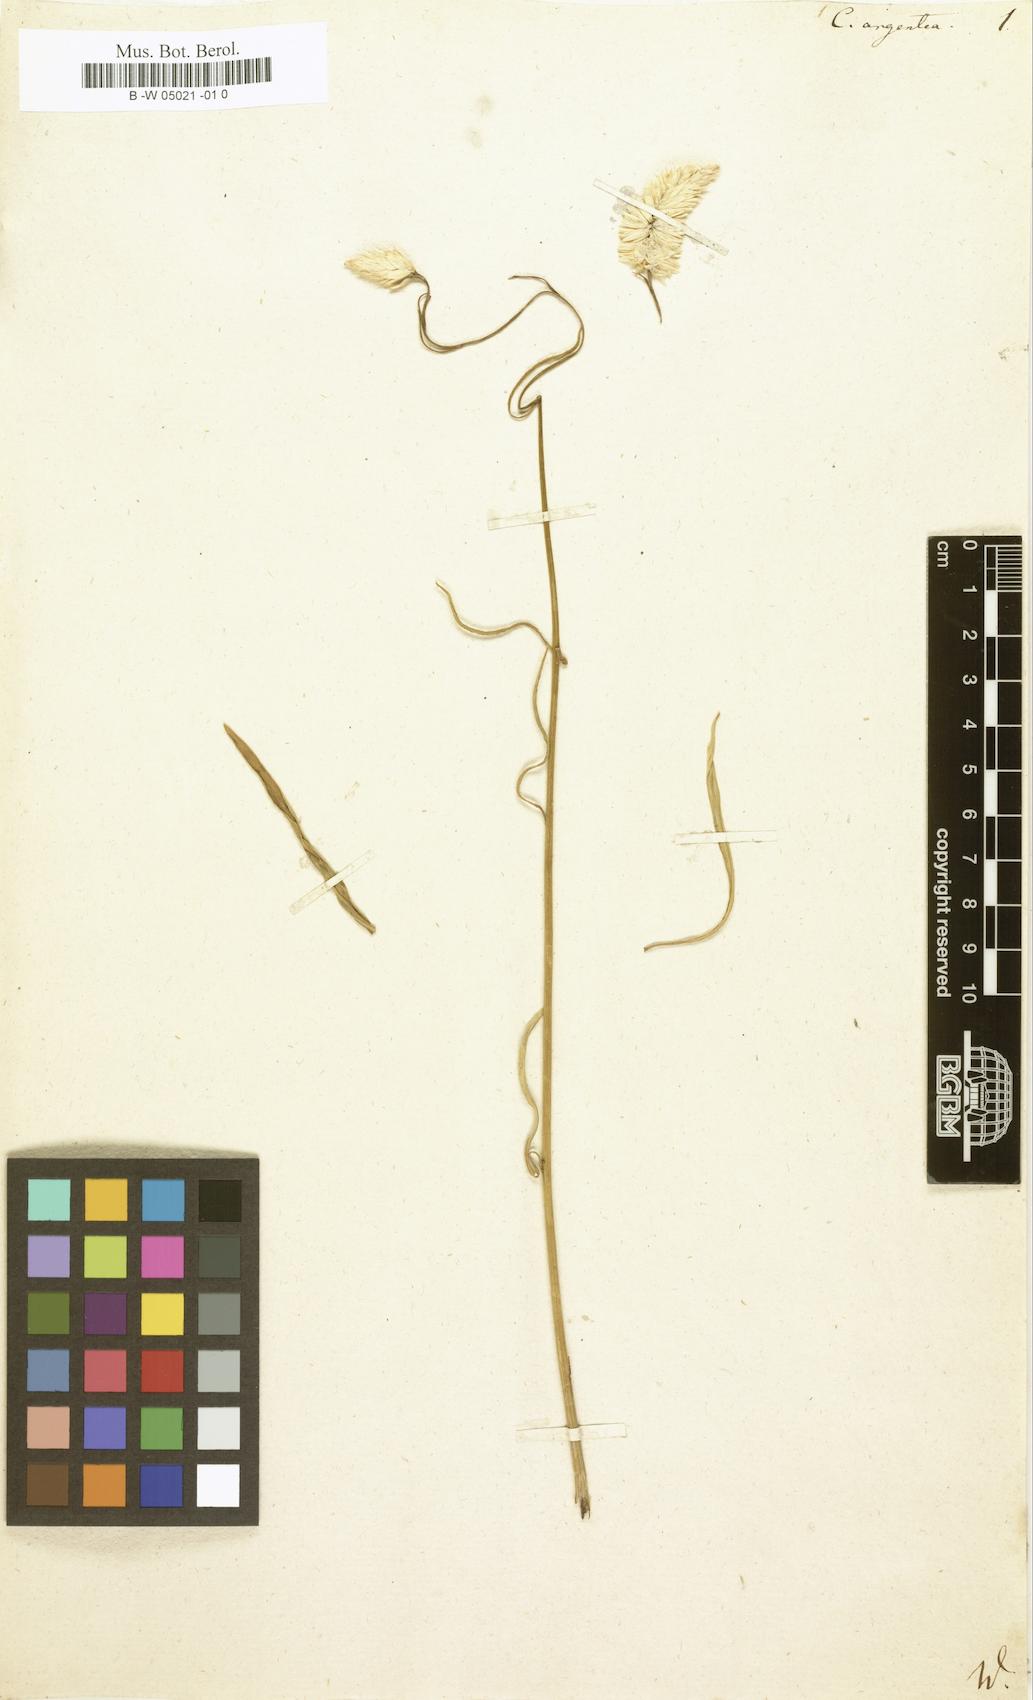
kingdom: Plantae
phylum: Tracheophyta
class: Magnoliopsida
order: Caryophyllales
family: Amaranthaceae
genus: Celosia
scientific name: Celosia argentea
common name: Feather cockscomb
